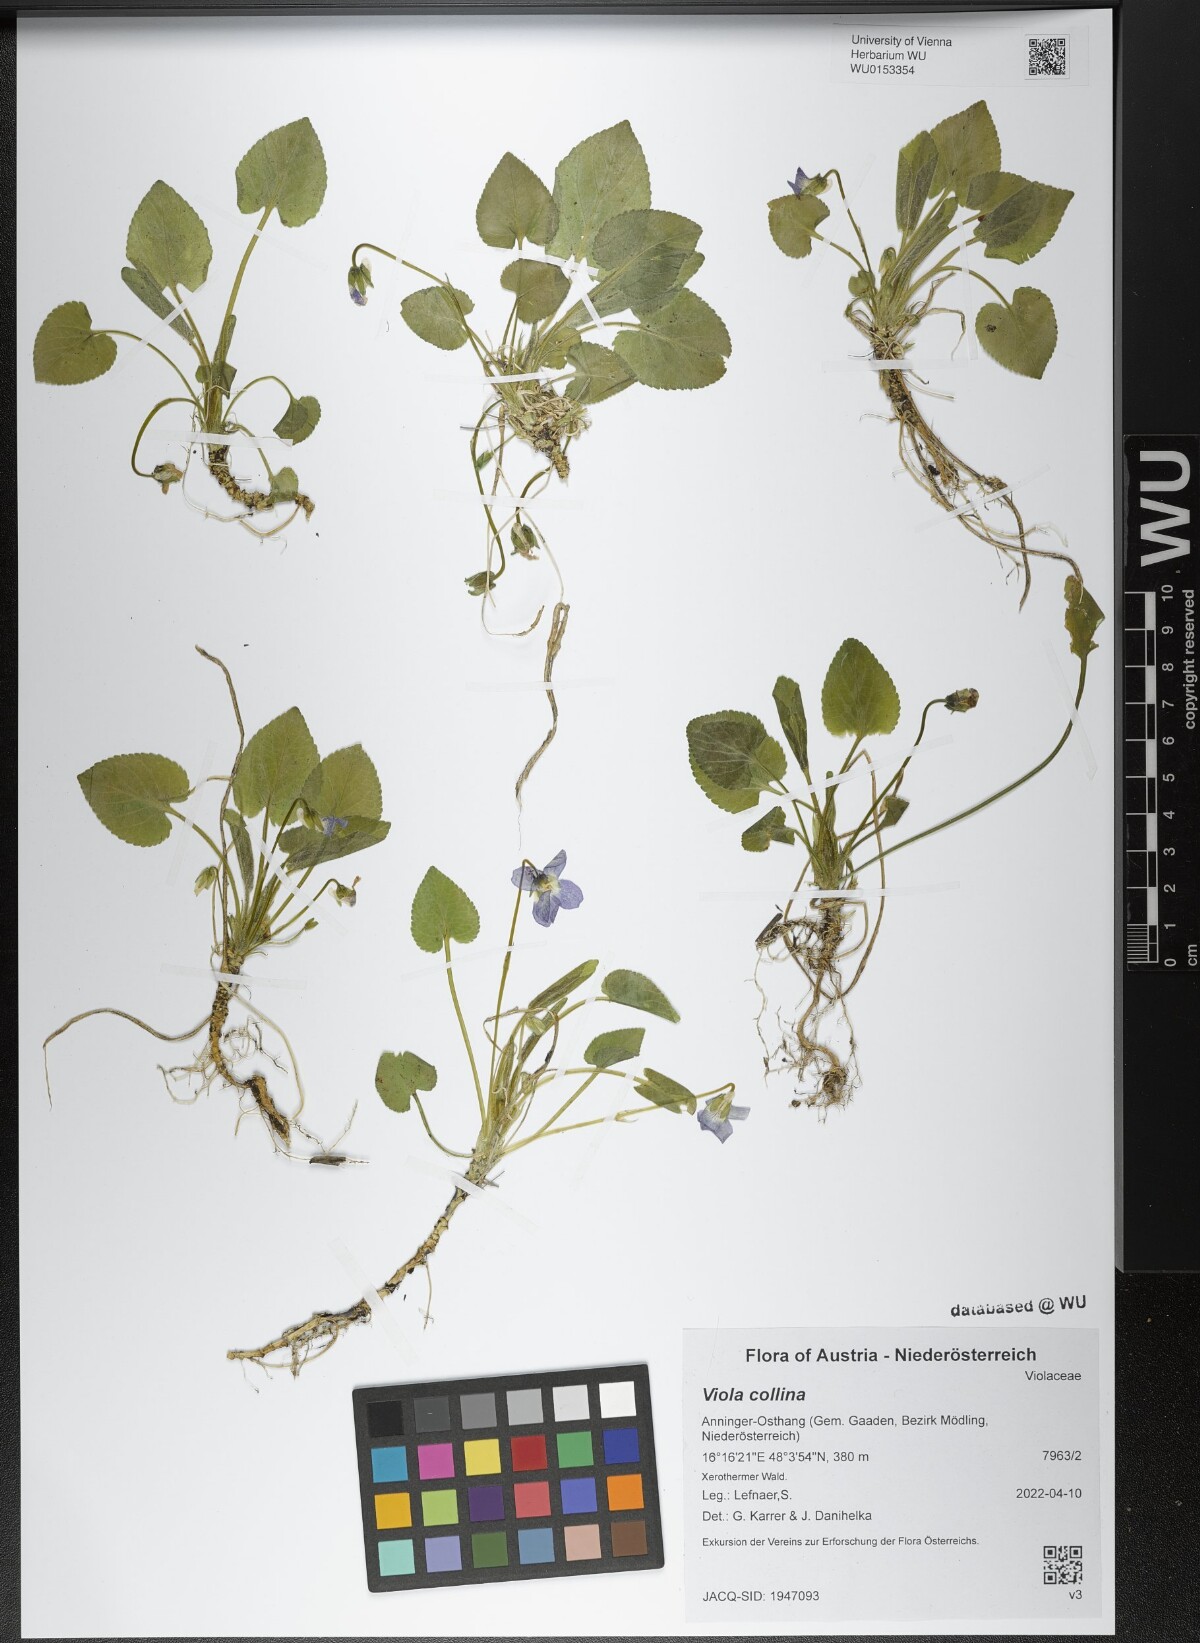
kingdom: Plantae
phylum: Tracheophyta
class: Magnoliopsida
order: Malpighiales
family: Violaceae
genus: Viola
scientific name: Viola collina
